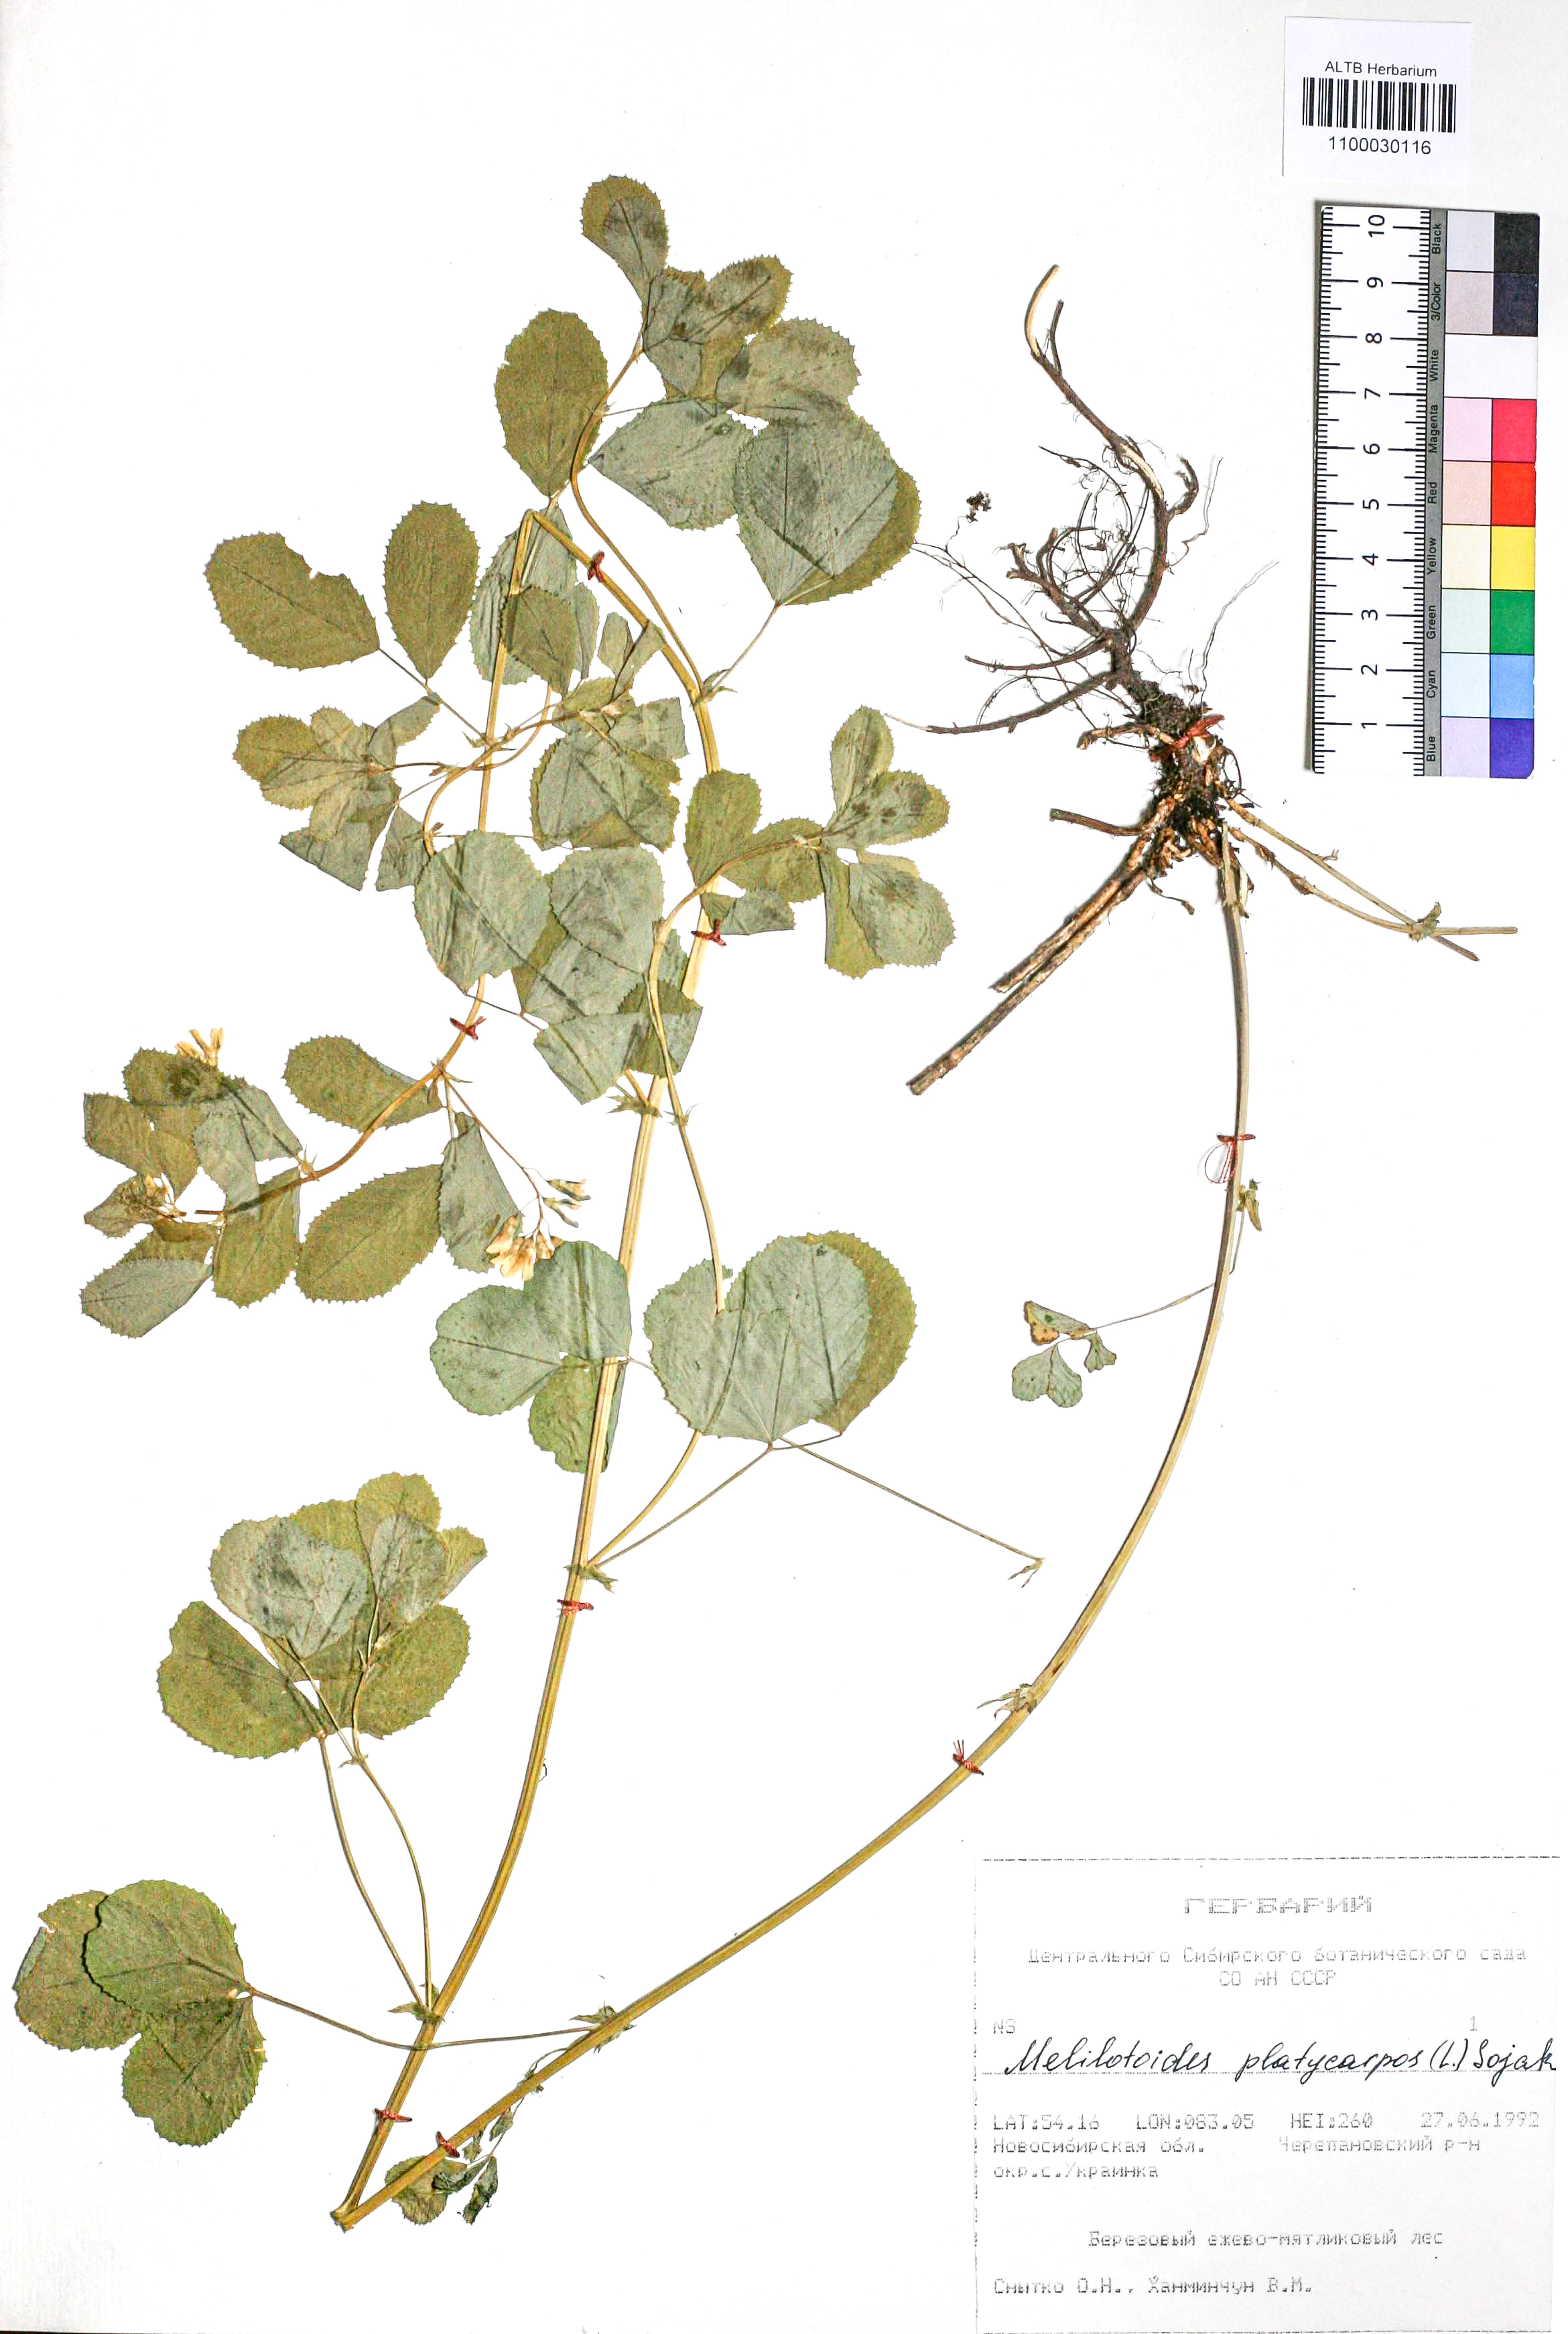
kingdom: Plantae
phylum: Tracheophyta
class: Magnoliopsida
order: Fabales
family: Fabaceae
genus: Medicago
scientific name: Medicago platycarpos
